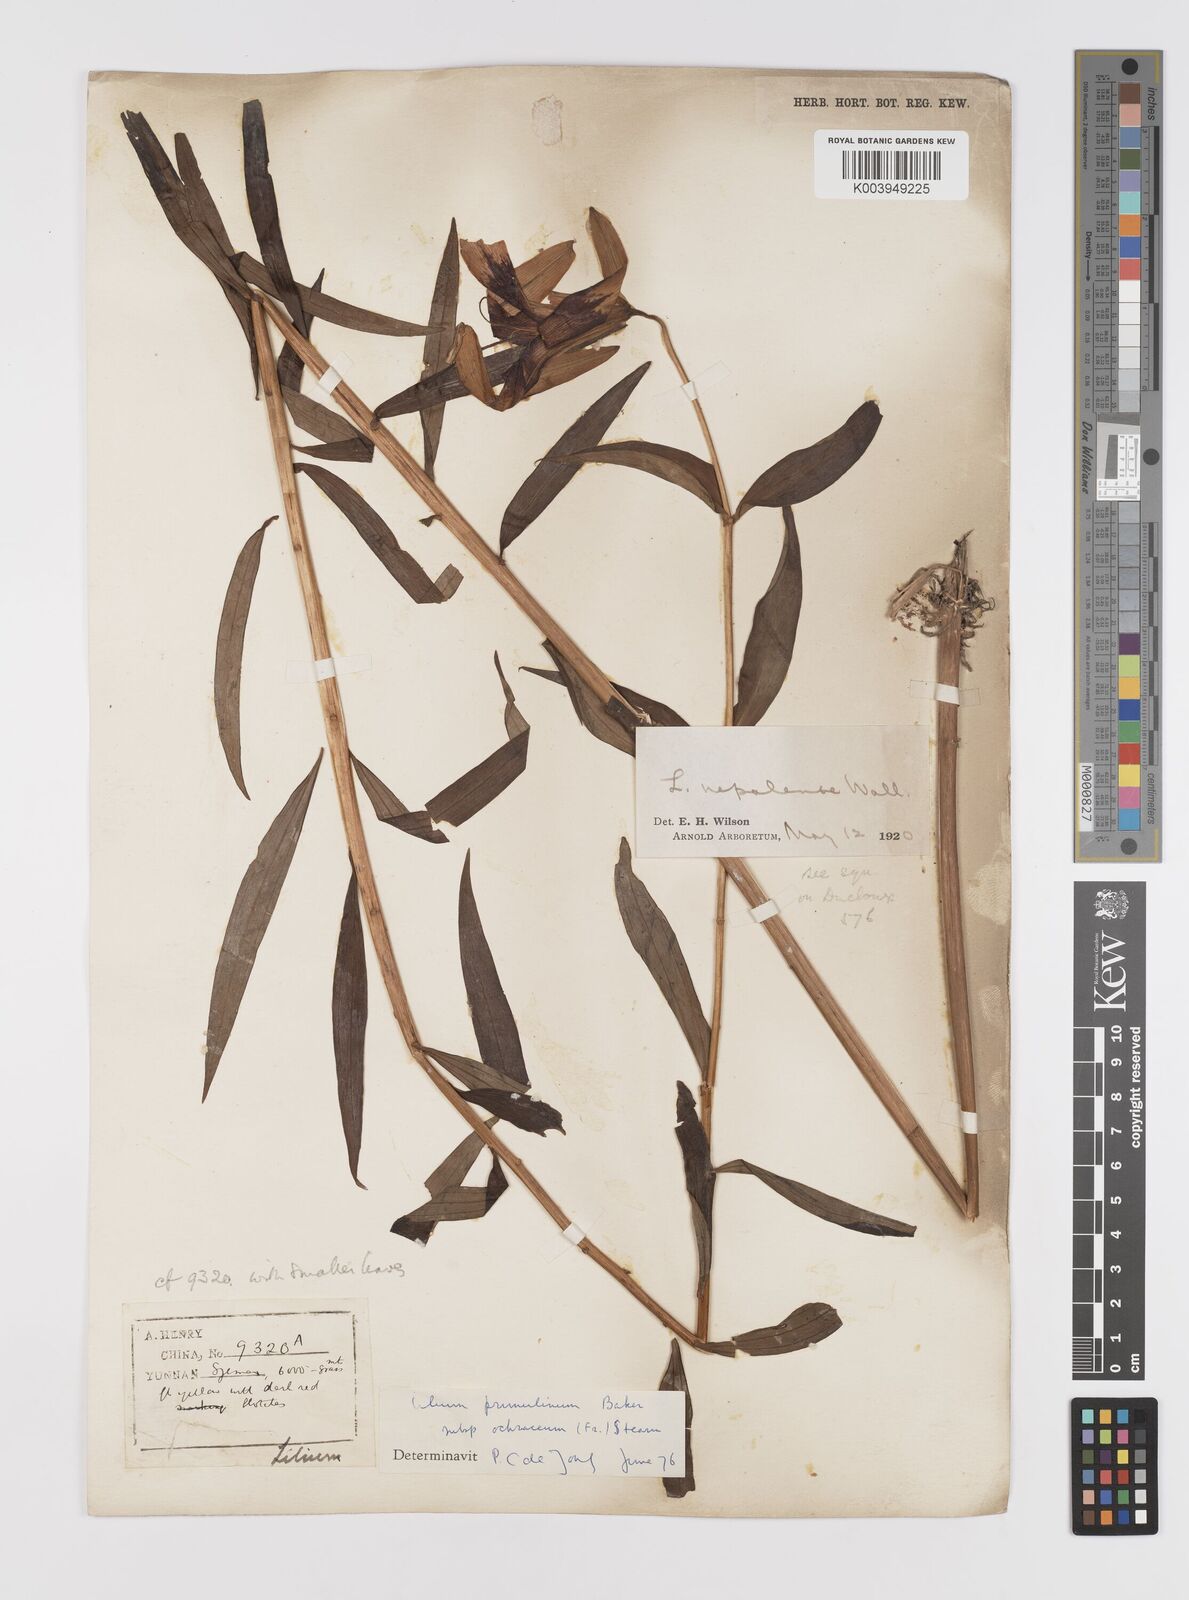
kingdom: Plantae
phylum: Tracheophyta
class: Liliopsida
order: Liliales
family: Liliaceae
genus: Lilium
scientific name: Lilium primulinum
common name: Ochre lily
